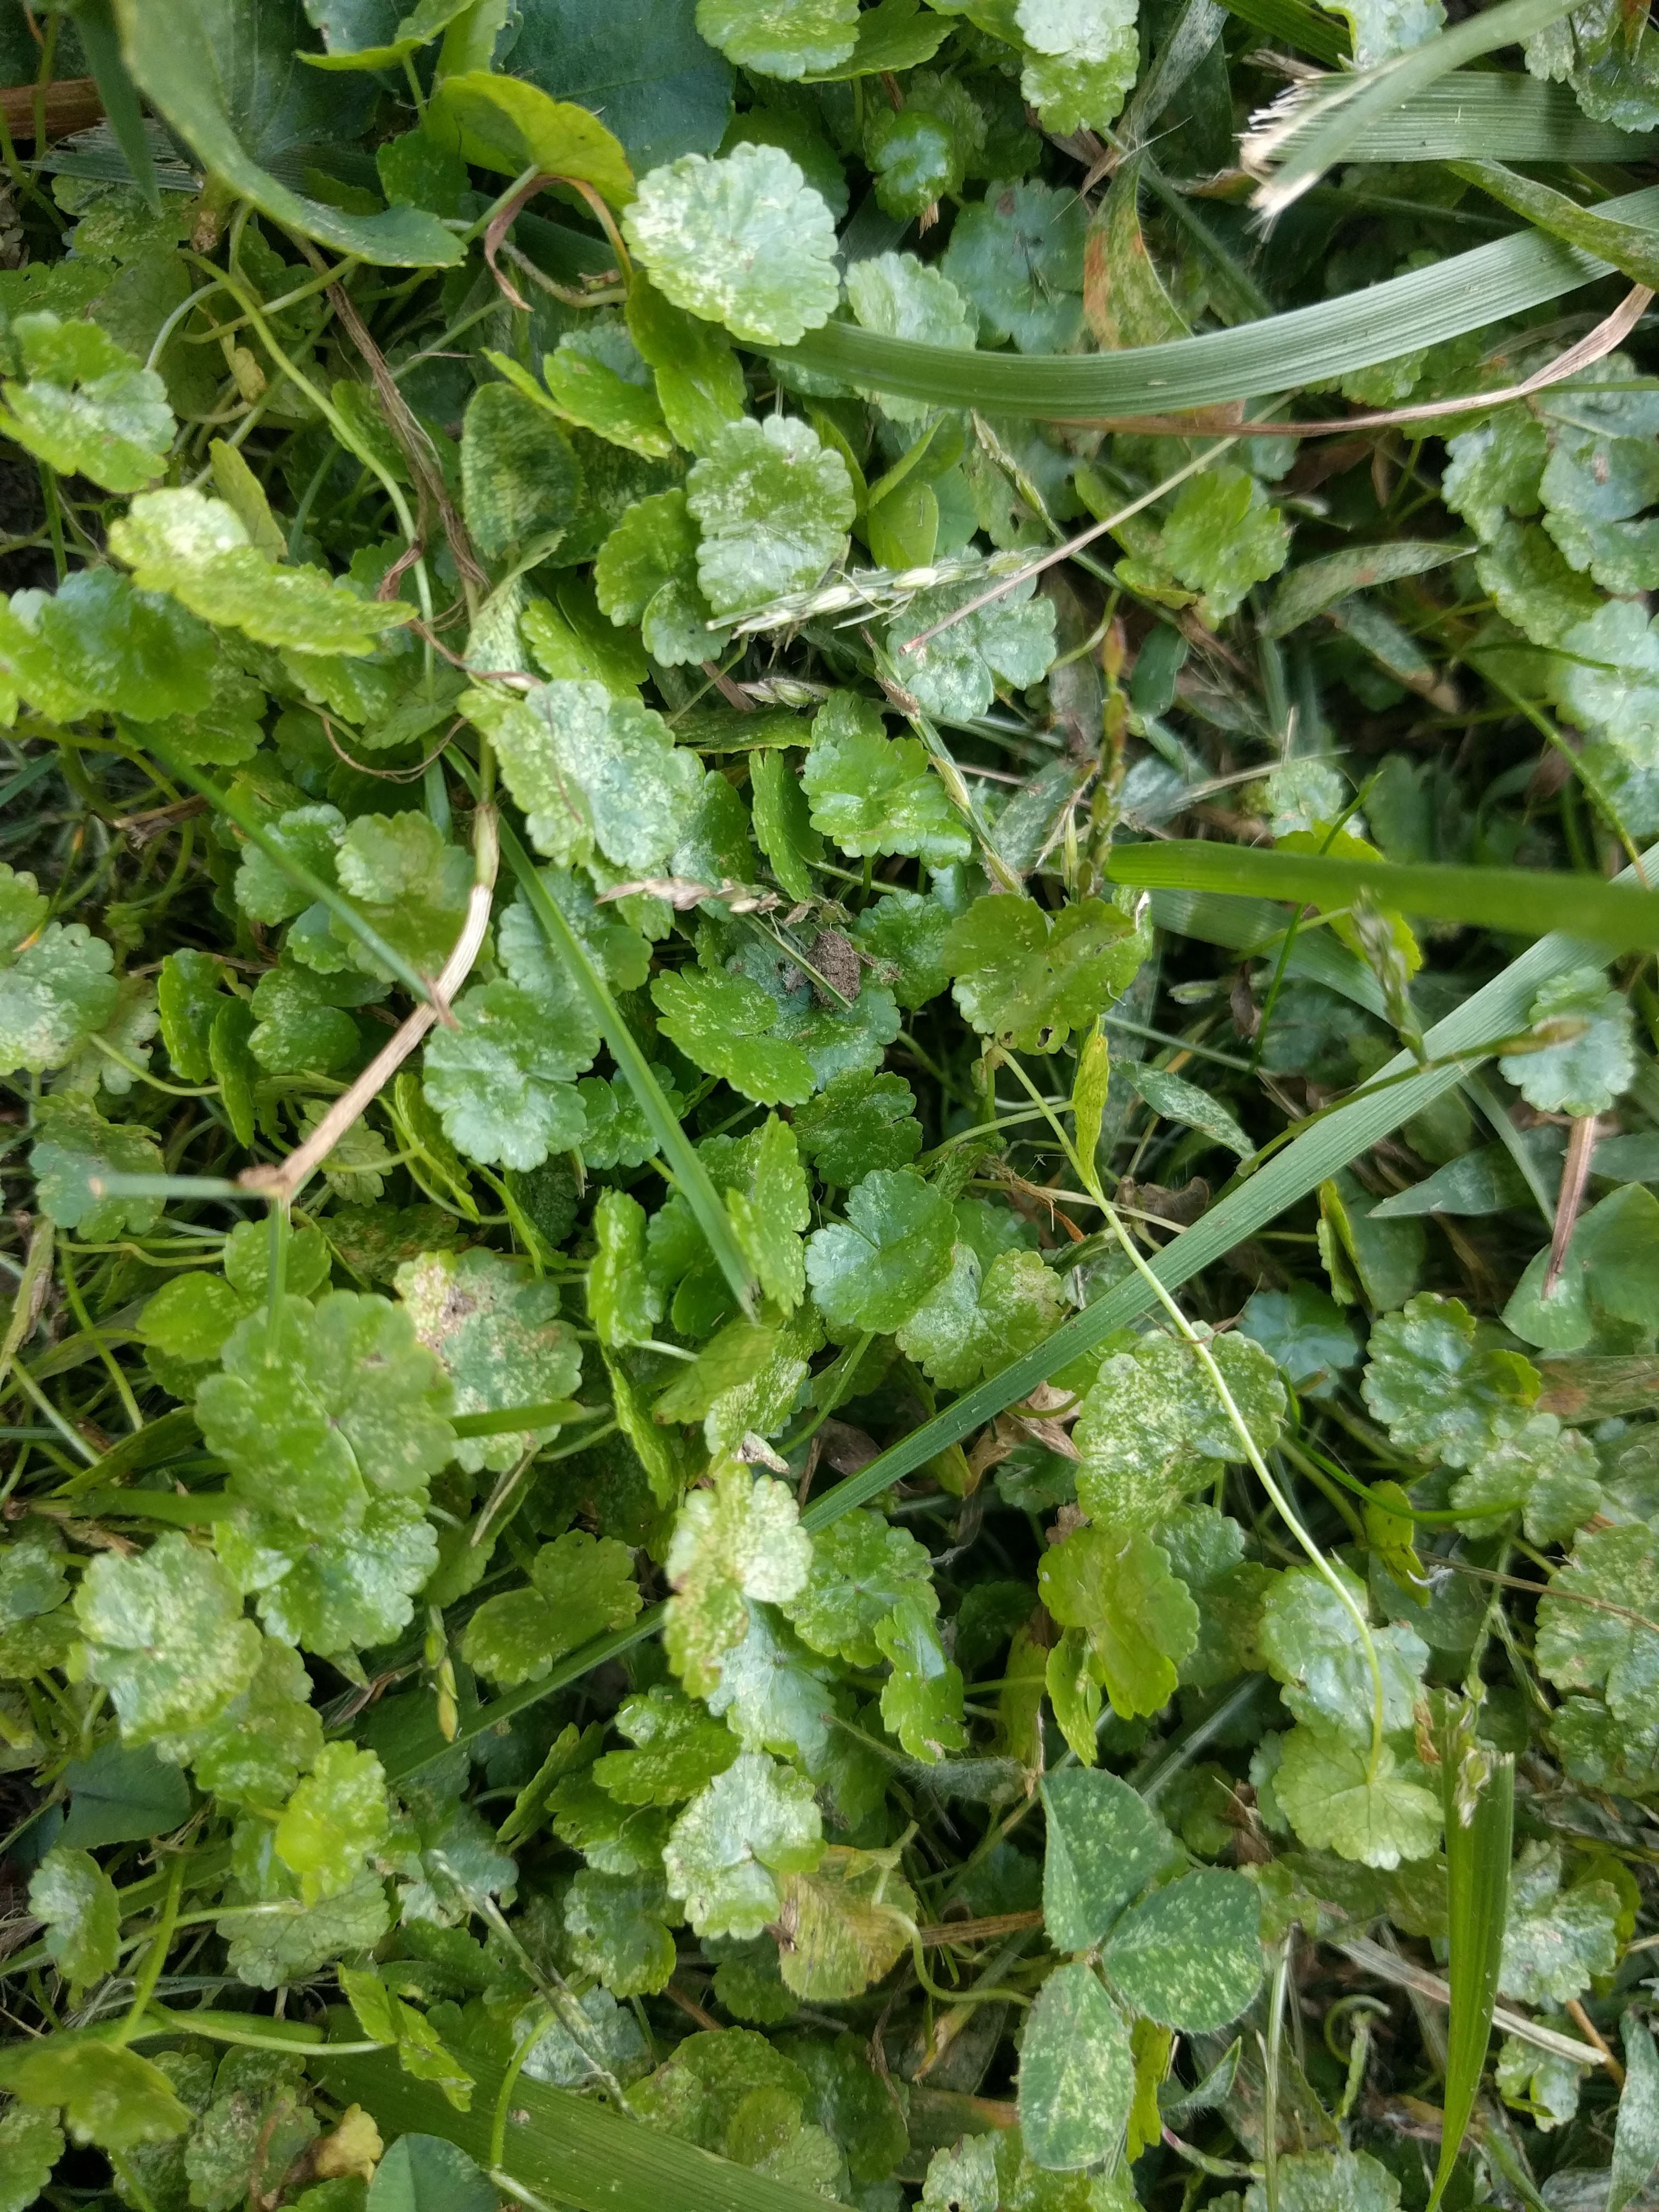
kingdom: Plantae
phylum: Tracheophyta
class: Magnoliopsida
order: Apiales
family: Araliaceae
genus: Hydrocotyle
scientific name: Hydrocotyle sibthorpioides
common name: Lawn marshpennywort
